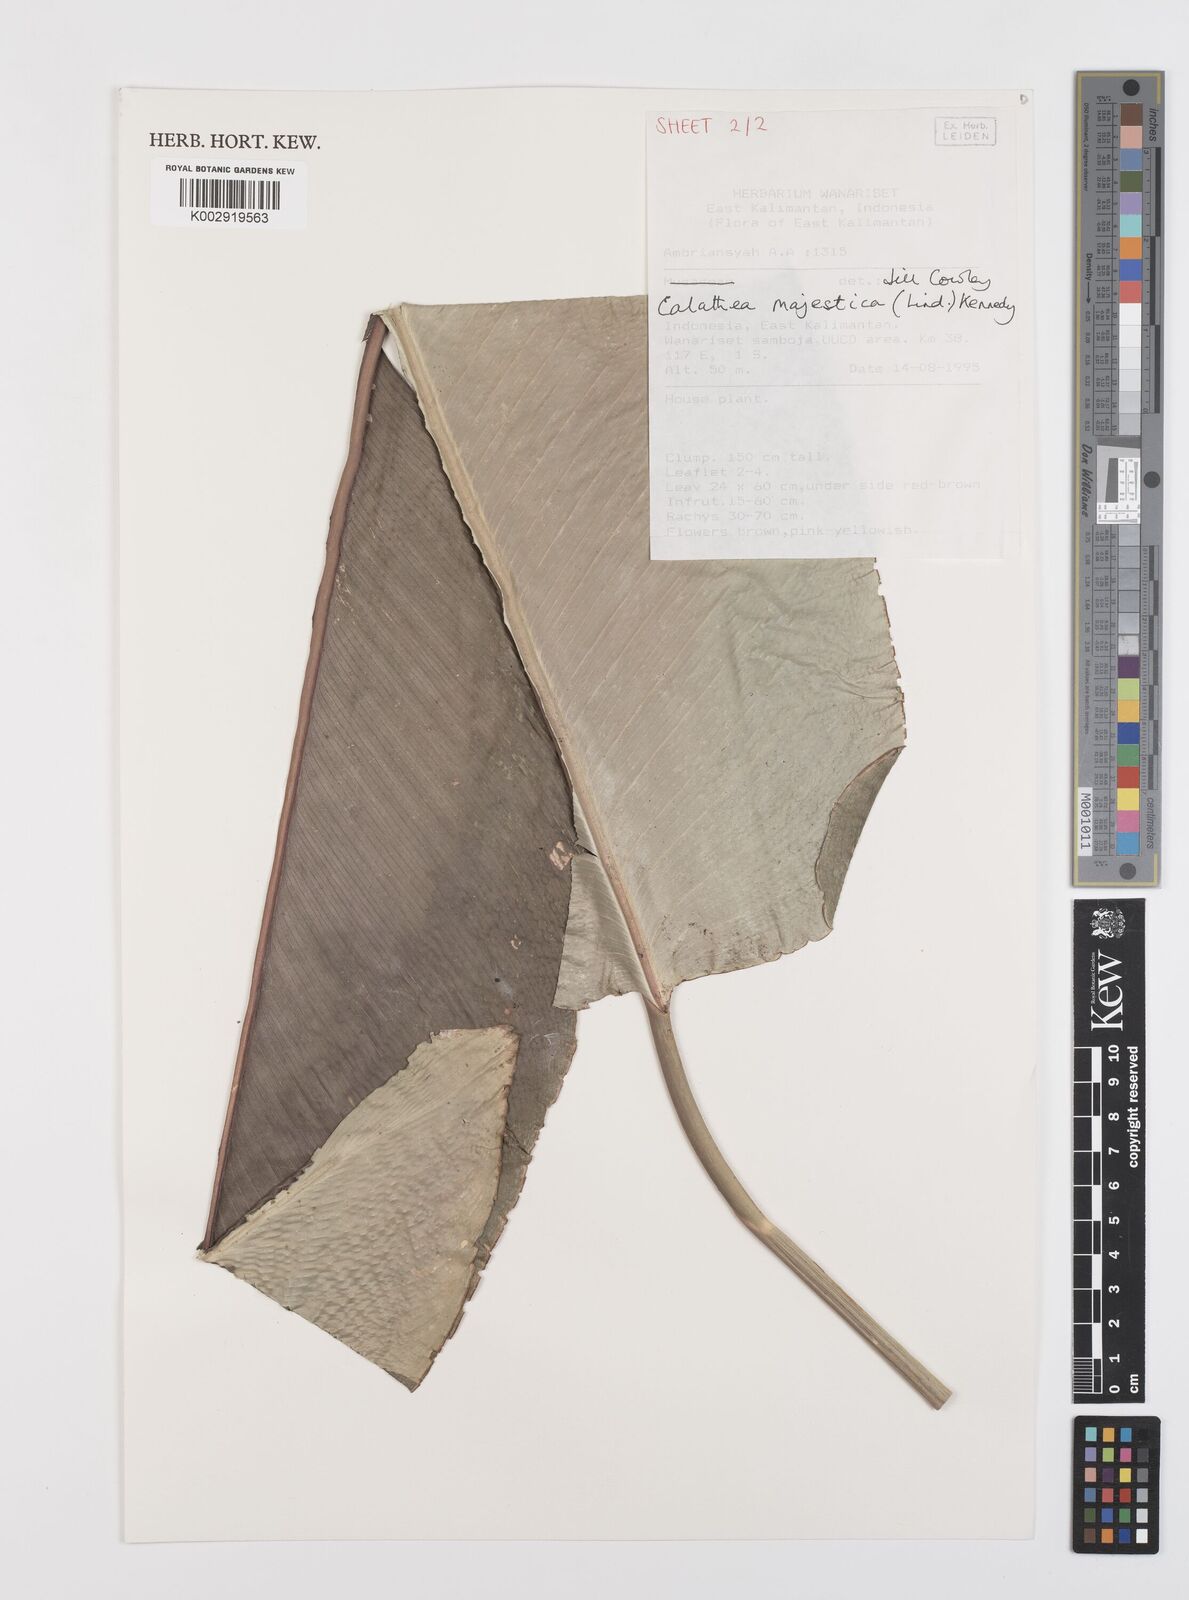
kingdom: Plantae
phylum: Tracheophyta
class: Liliopsida
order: Zingiberales
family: Marantaceae
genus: Goeppertia
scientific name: Goeppertia majestica
